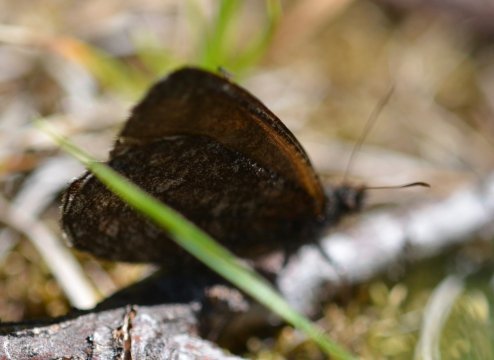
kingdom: Animalia
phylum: Arthropoda
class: Insecta
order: Lepidoptera
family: Nymphalidae
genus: Erebia
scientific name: Erebia occulta
